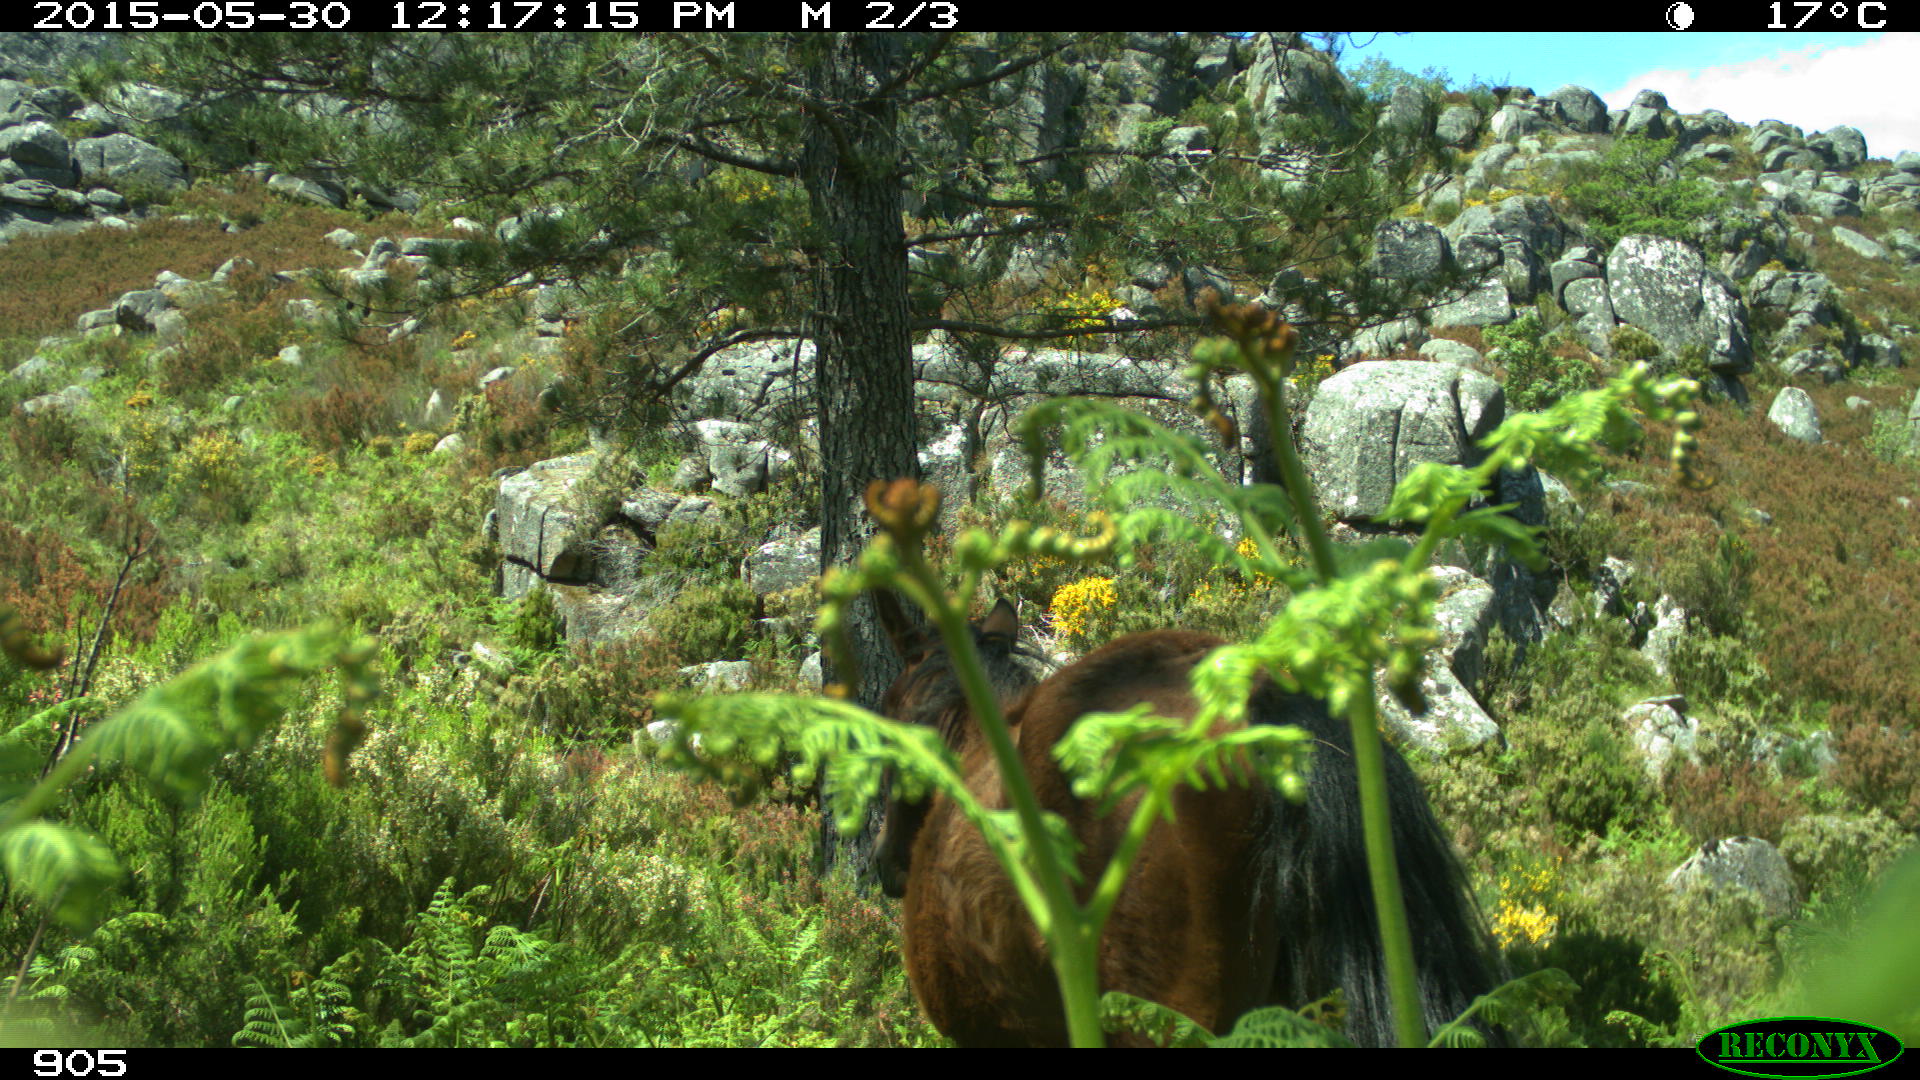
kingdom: Animalia
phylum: Chordata
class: Mammalia
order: Perissodactyla
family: Equidae
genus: Equus
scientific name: Equus caballus
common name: Horse
